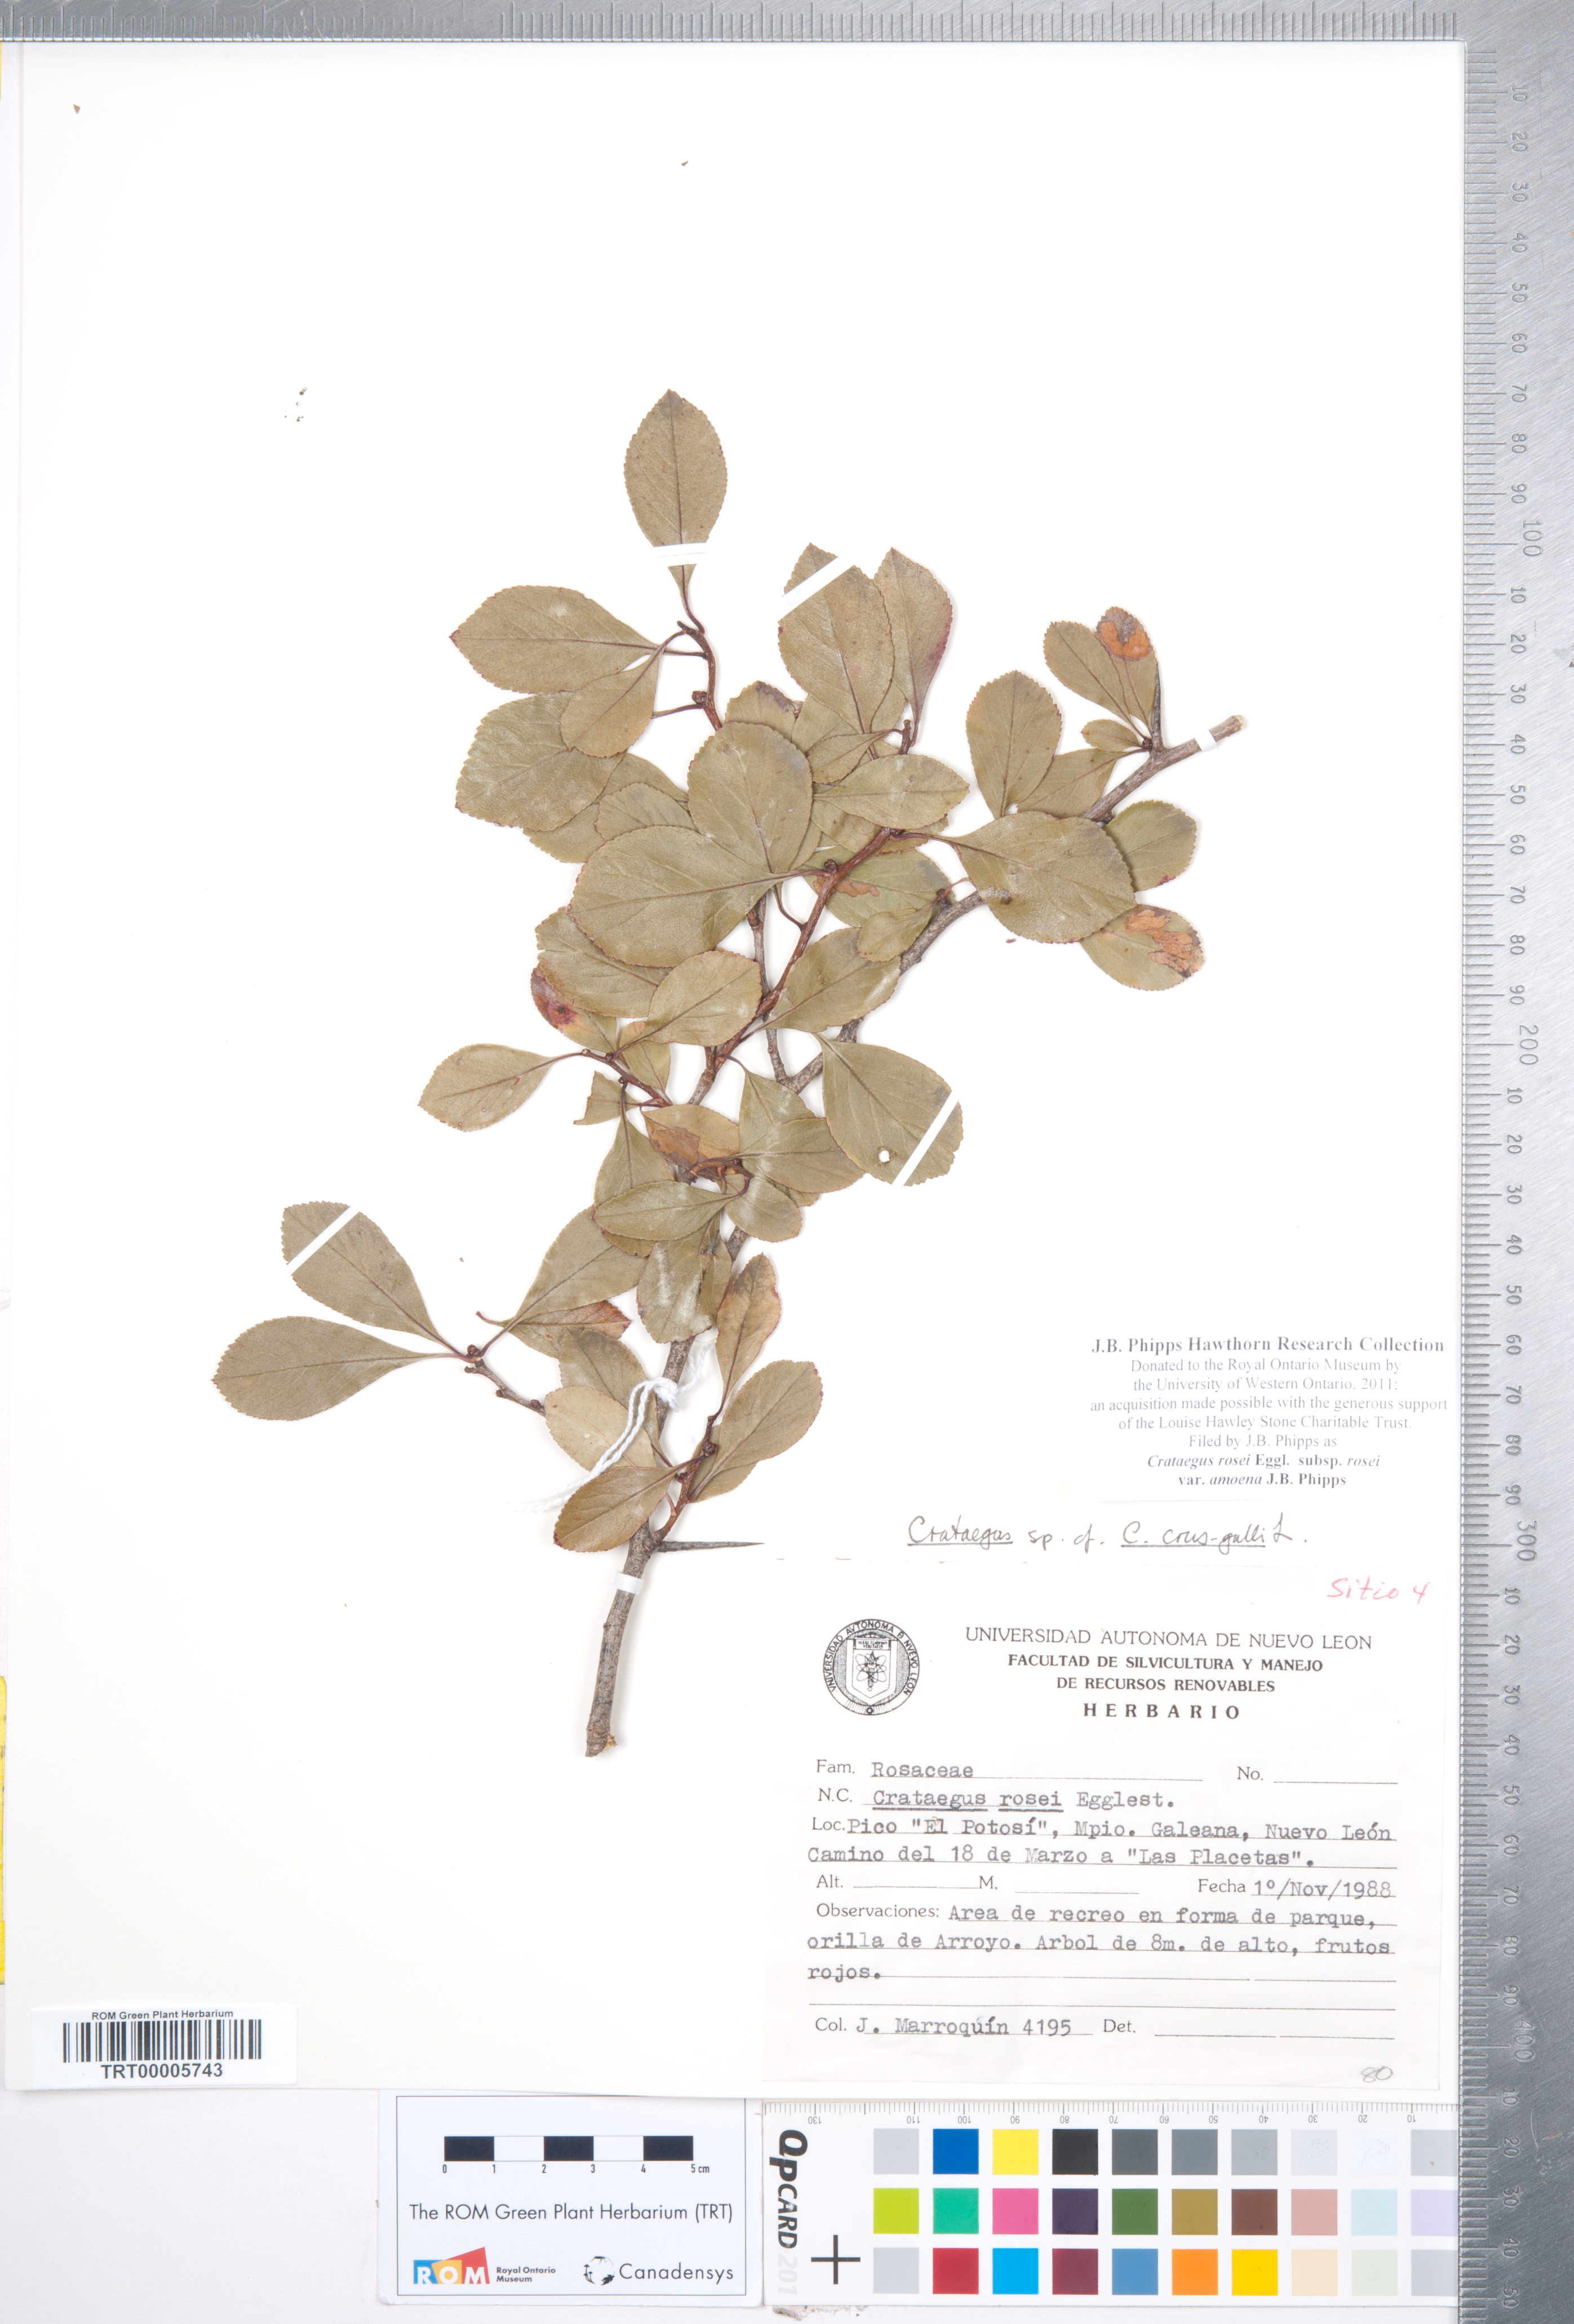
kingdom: Plantae
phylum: Tracheophyta
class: Magnoliopsida
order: Rosales
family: Rosaceae
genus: Crataegus
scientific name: Crataegus rosei
